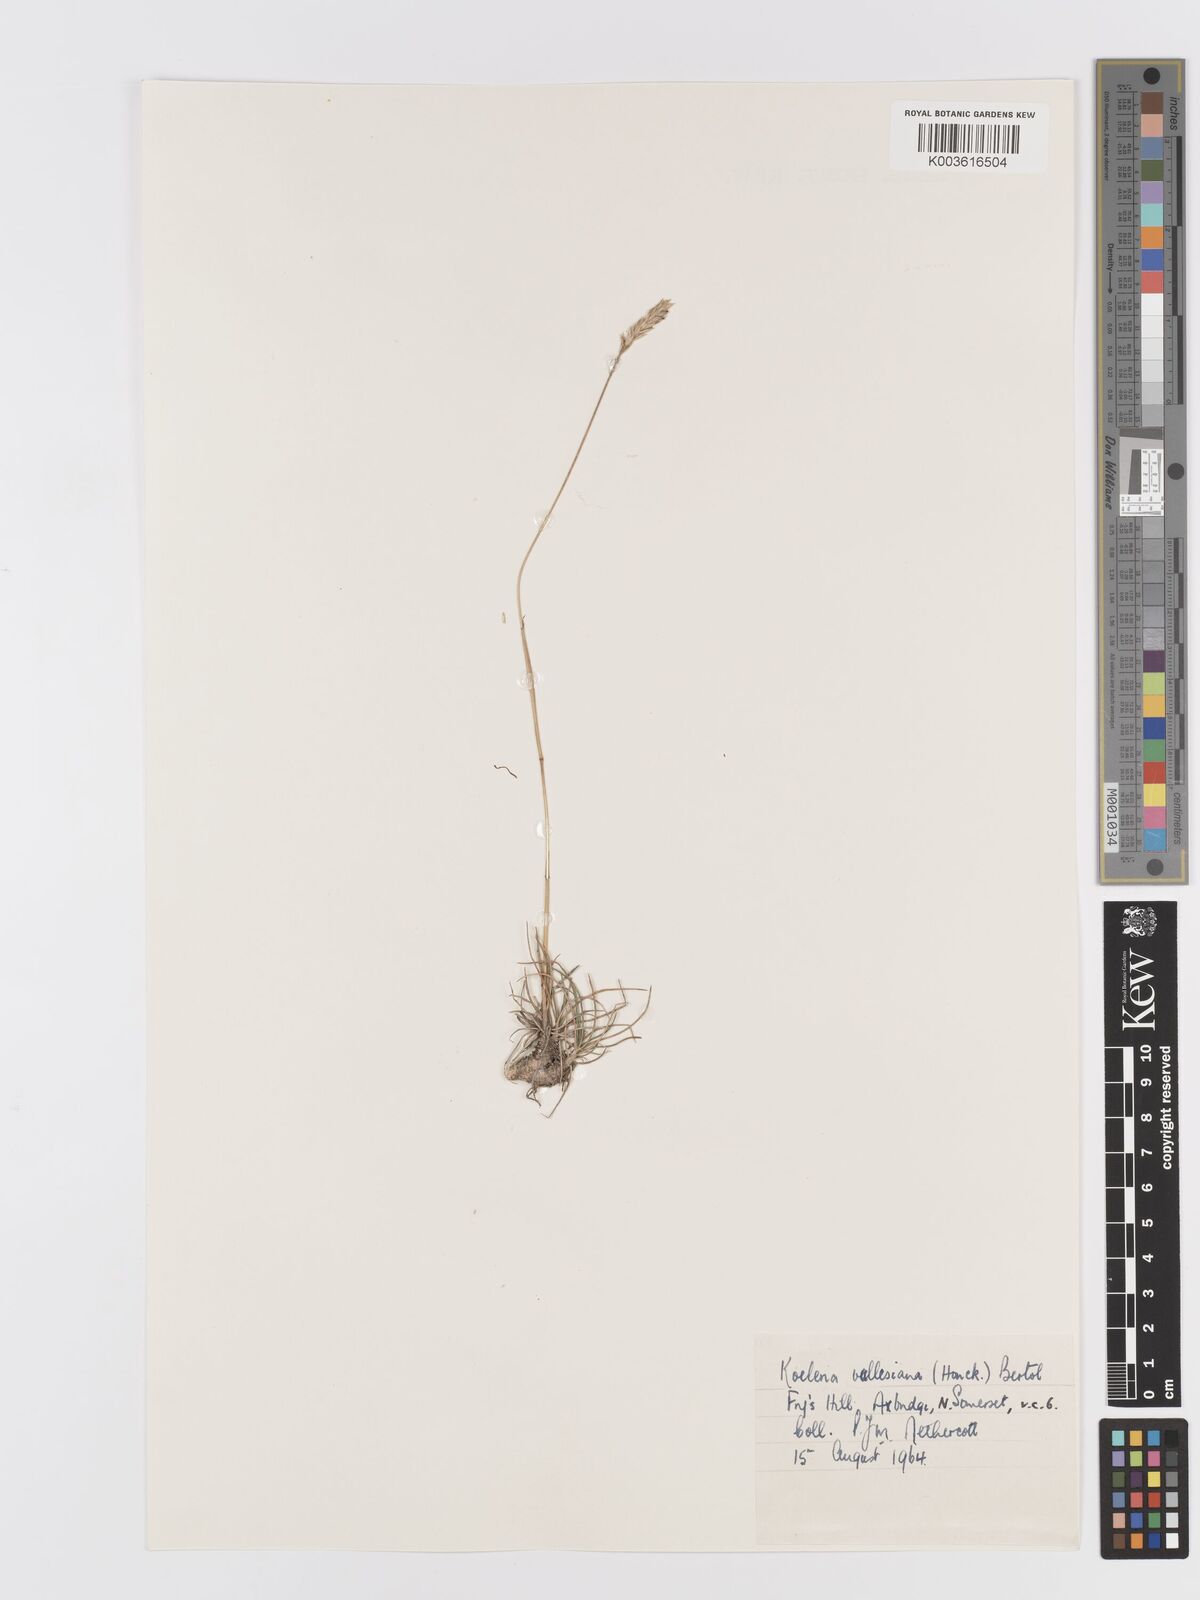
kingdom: Plantae
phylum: Tracheophyta
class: Liliopsida
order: Poales
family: Poaceae
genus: Koeleria
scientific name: Koeleria vallesiana
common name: Somerset hair-grass
